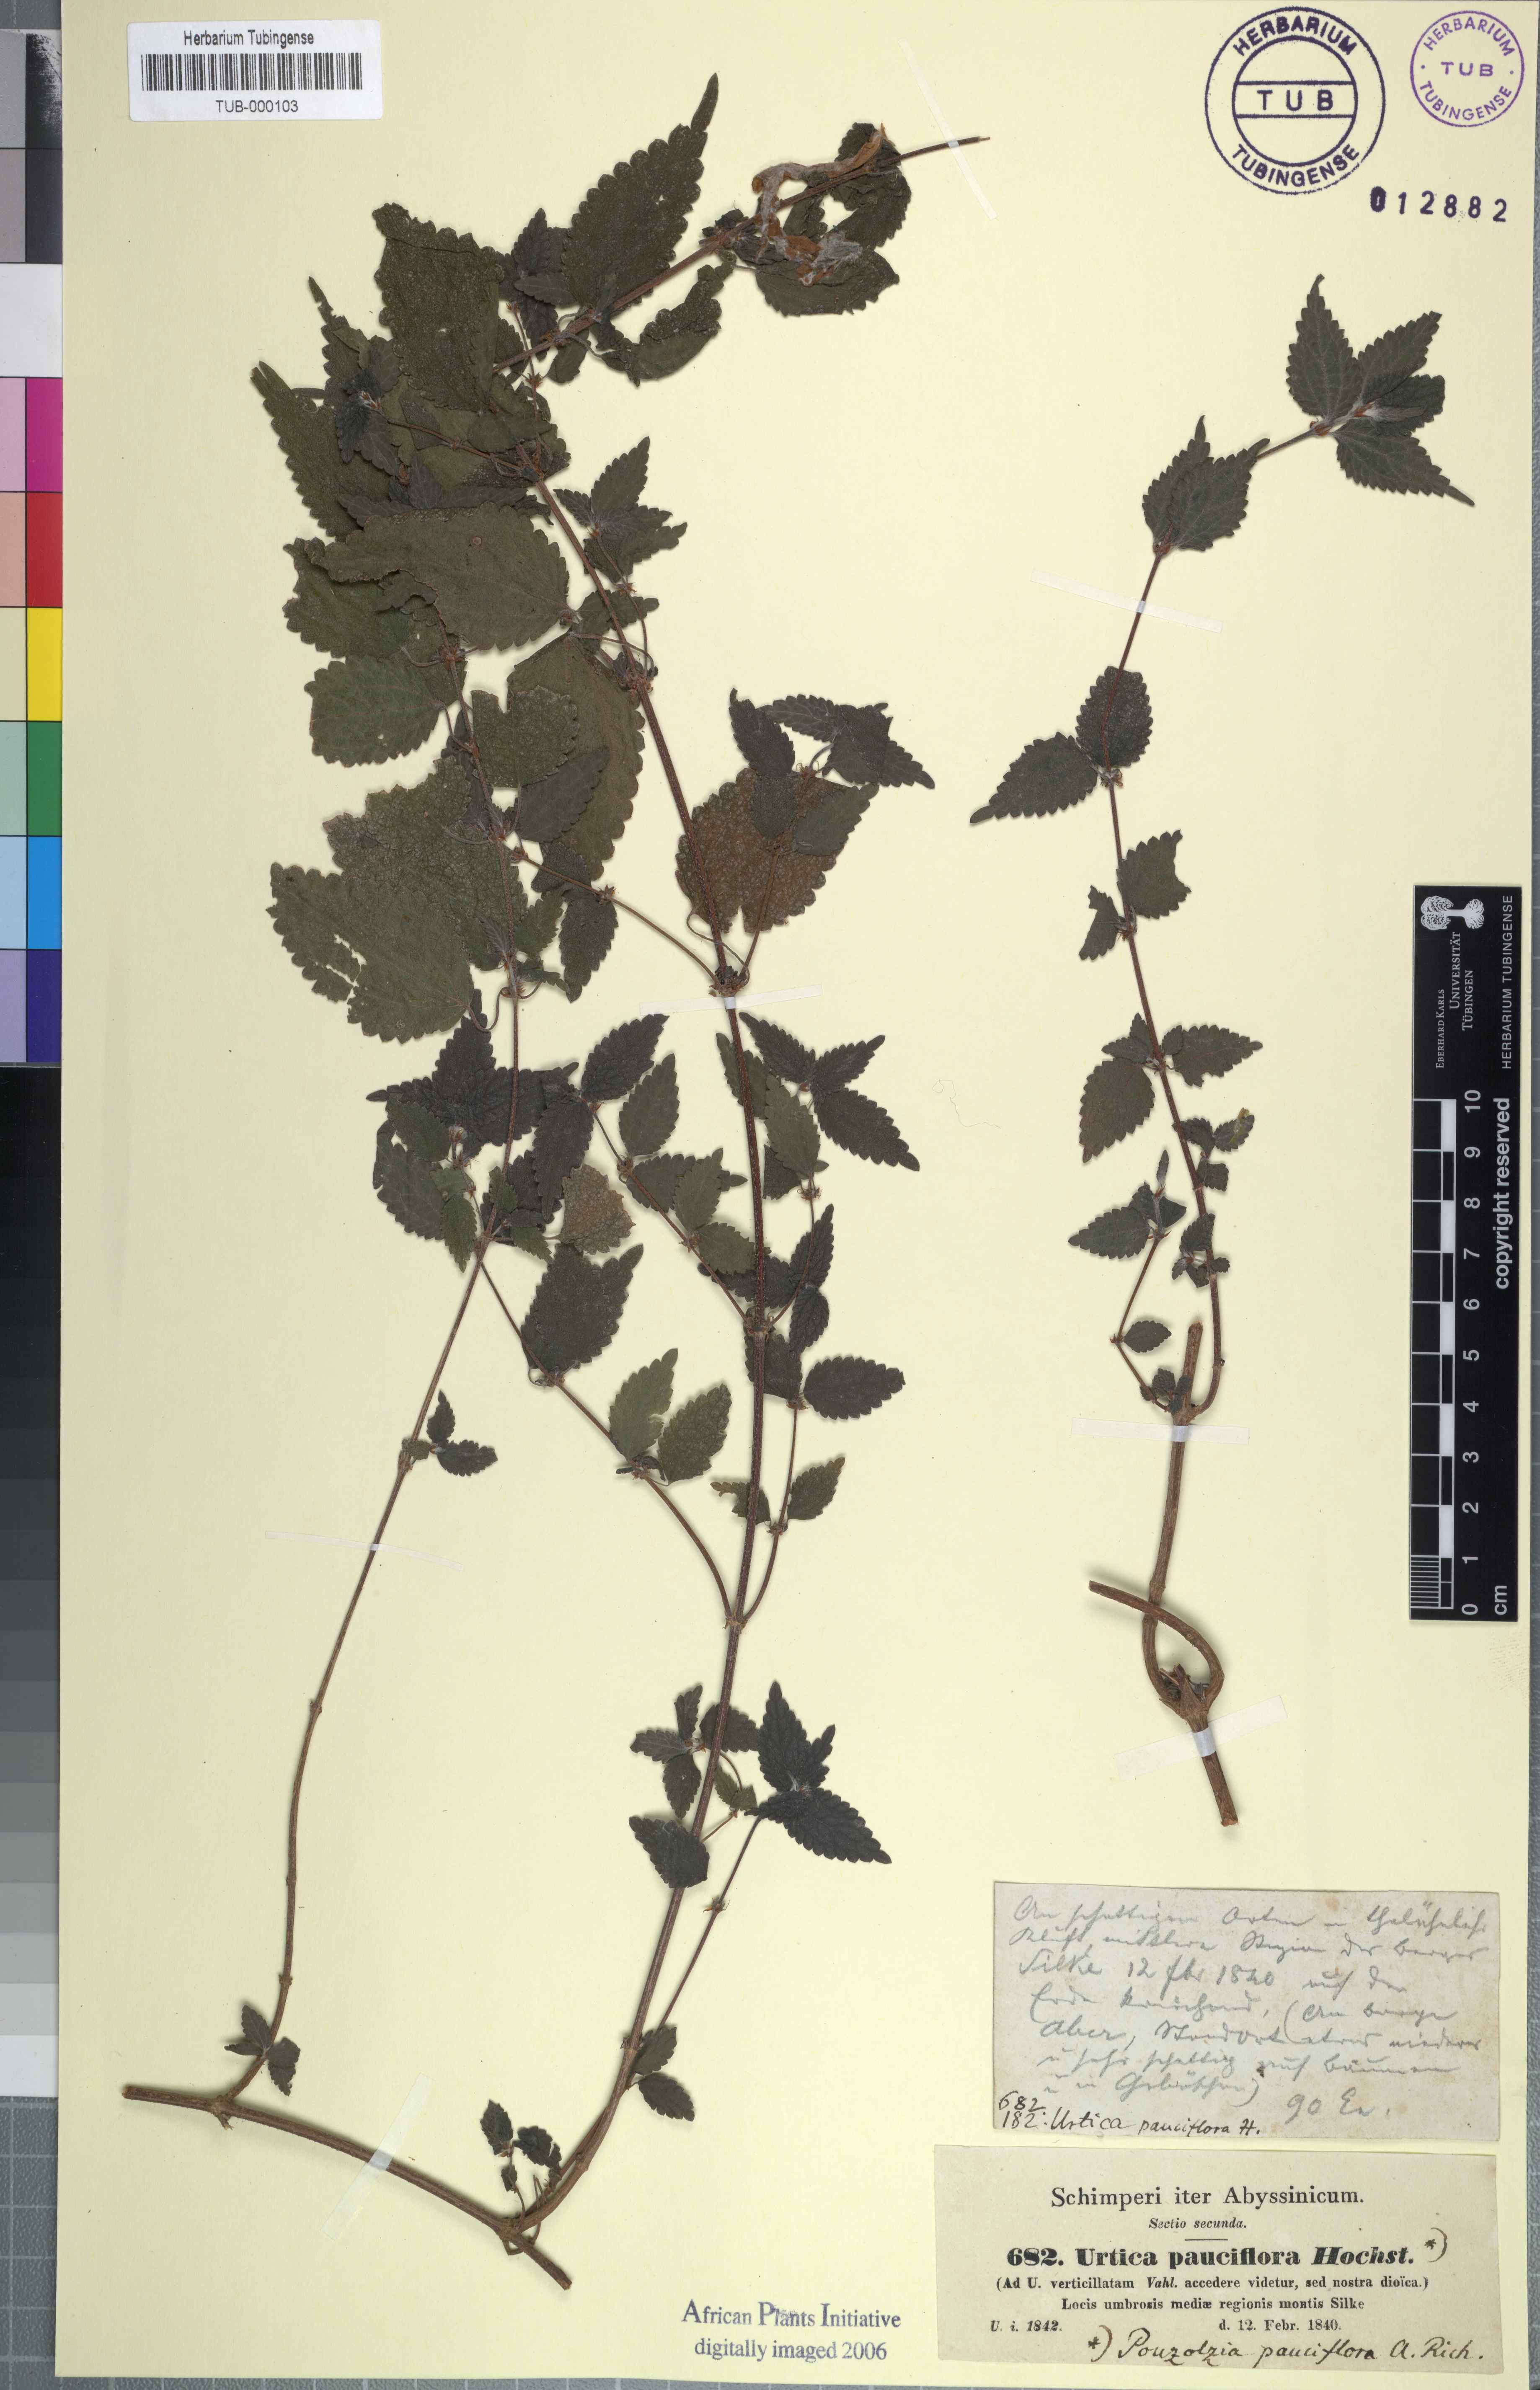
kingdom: Plantae
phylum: Tracheophyta
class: Magnoliopsida
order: Rosales
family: Urticaceae
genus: Droguetia
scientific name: Droguetia iners
